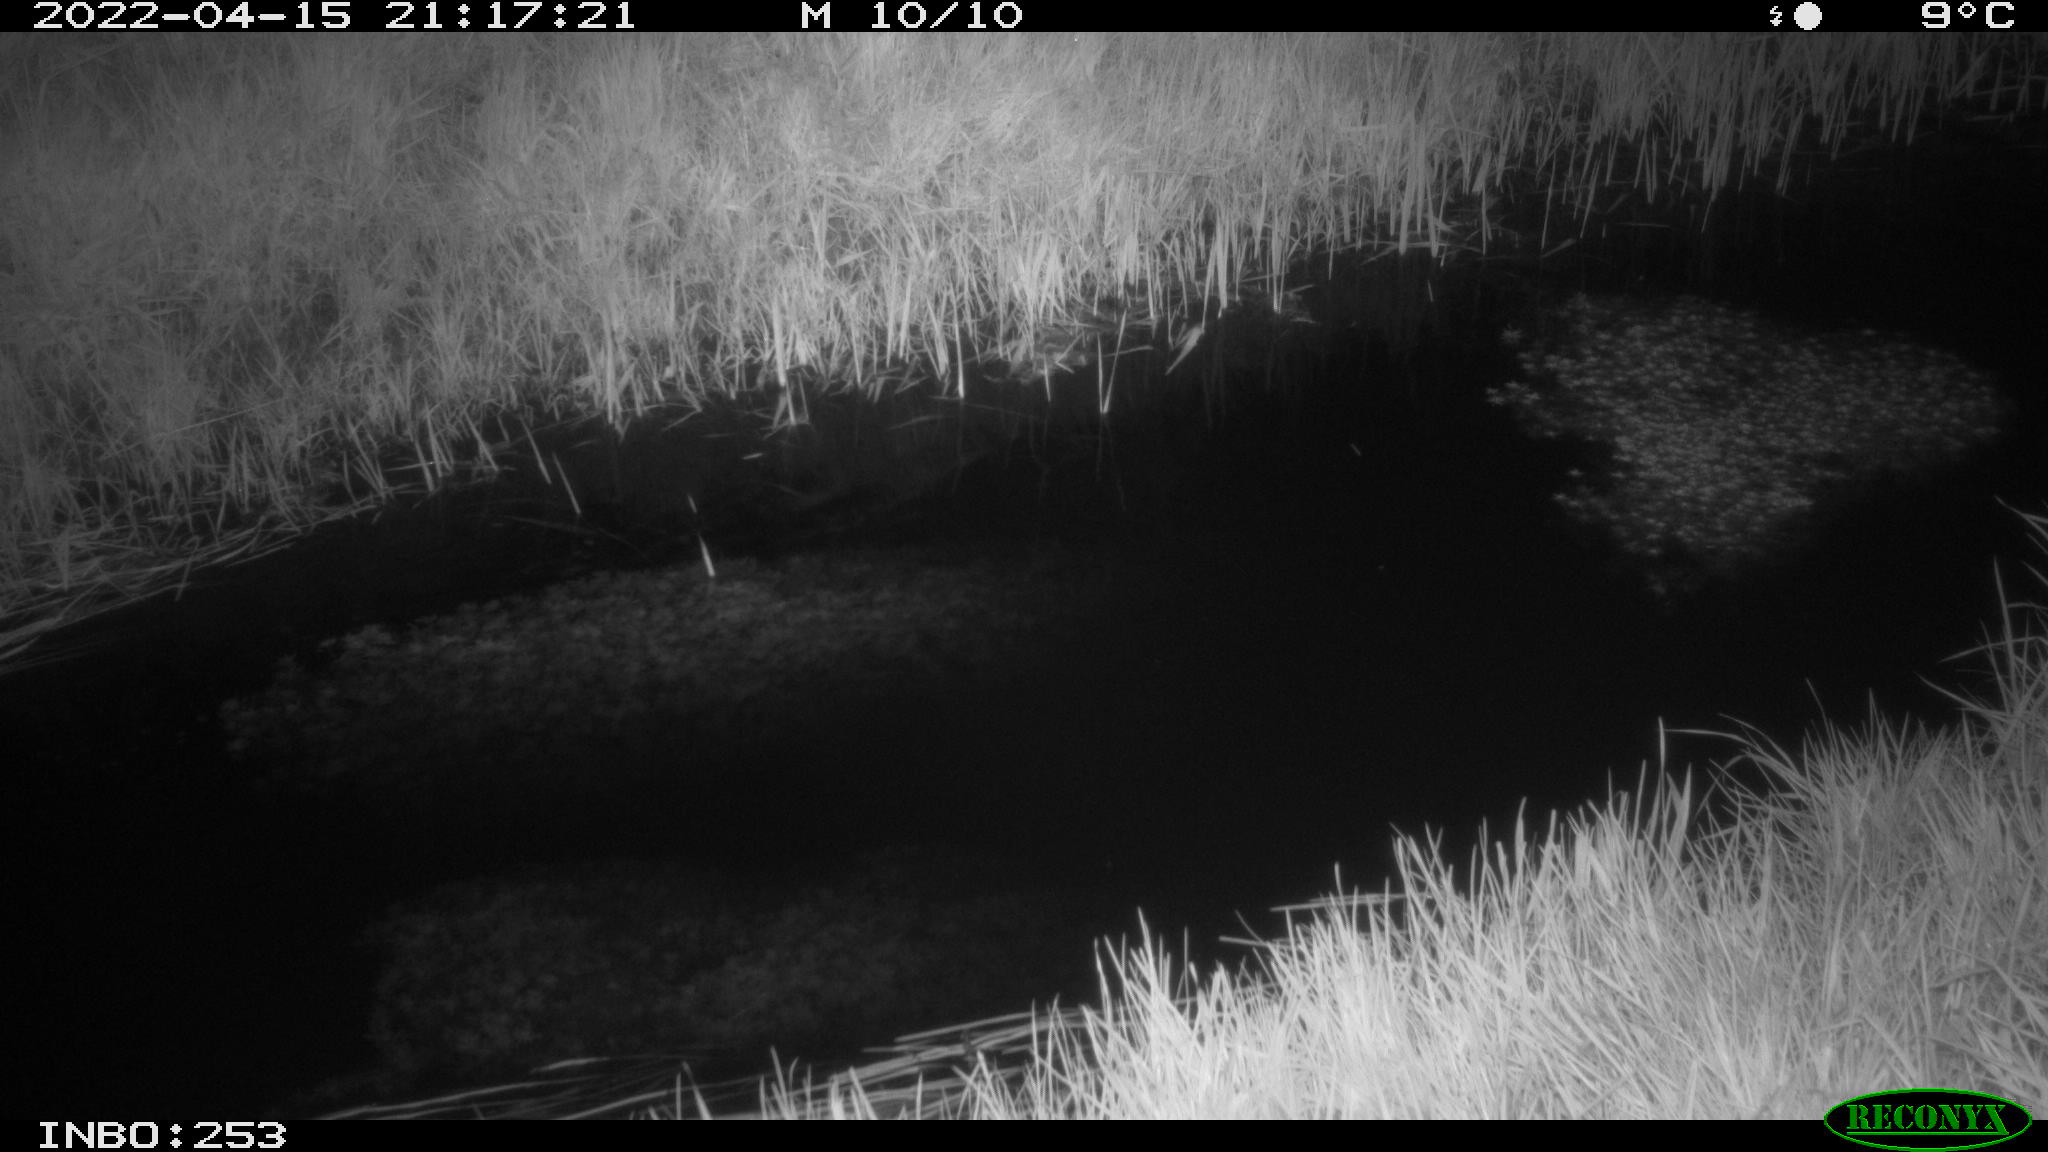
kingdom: Animalia
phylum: Chordata
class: Aves
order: Anseriformes
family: Anatidae
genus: Anas
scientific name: Anas platyrhynchos
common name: Mallard
